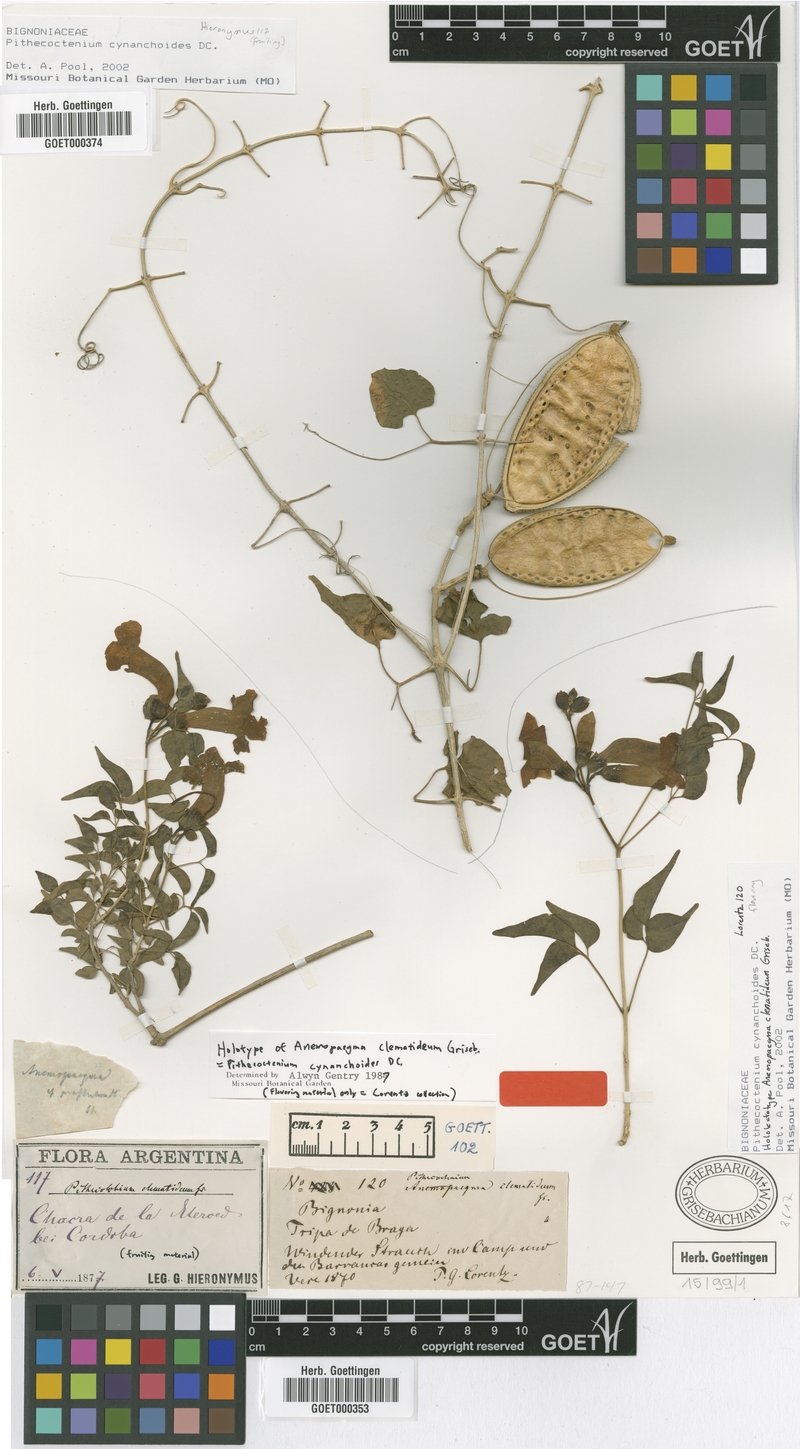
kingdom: Plantae
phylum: Tracheophyta
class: Magnoliopsida
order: Lamiales
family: Bignoniaceae
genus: Amphilophium
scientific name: Amphilophium carolinae
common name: Monkey's-comb
